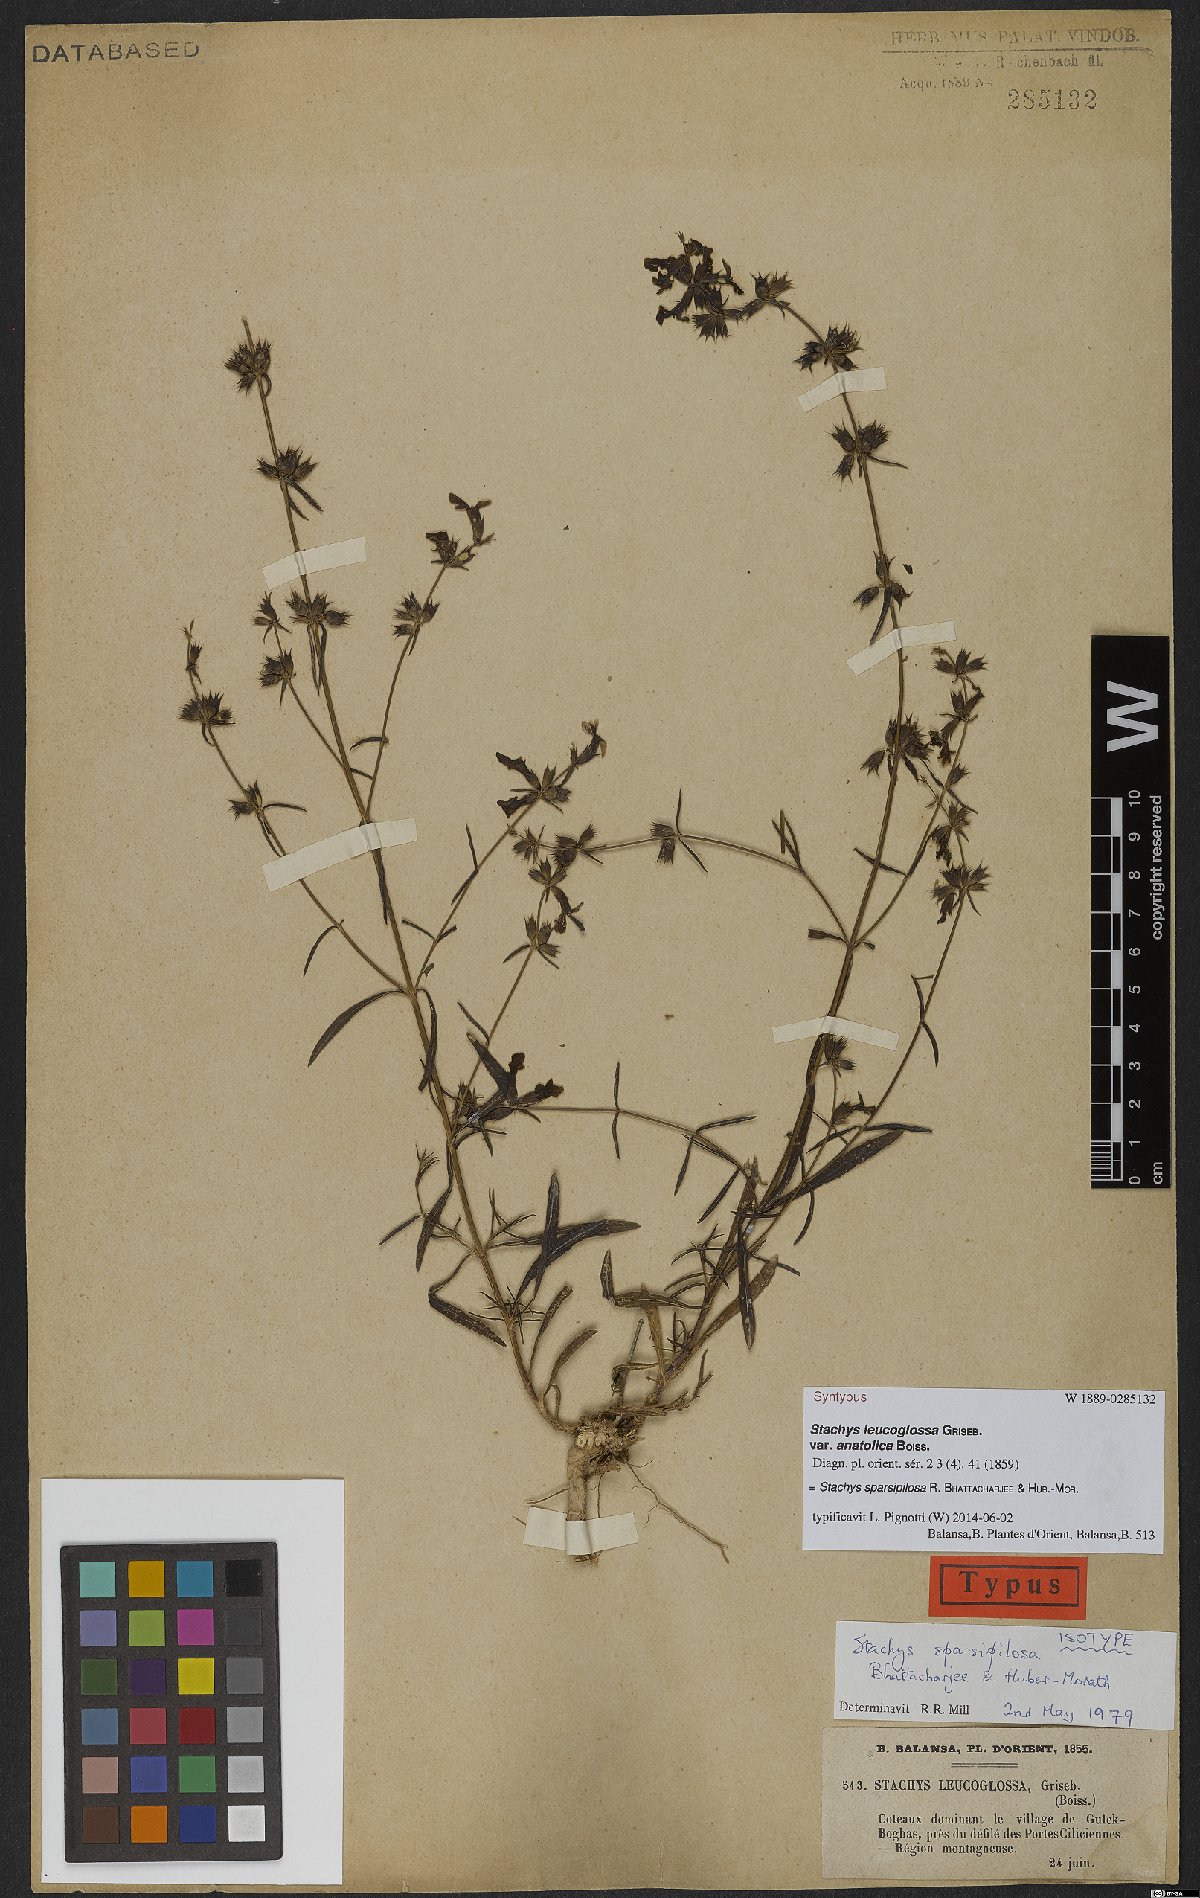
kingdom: Plantae
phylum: Tracheophyta
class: Magnoliopsida
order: Lamiales
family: Lamiaceae
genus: Stachys
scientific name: Stachys sparsipilosa
